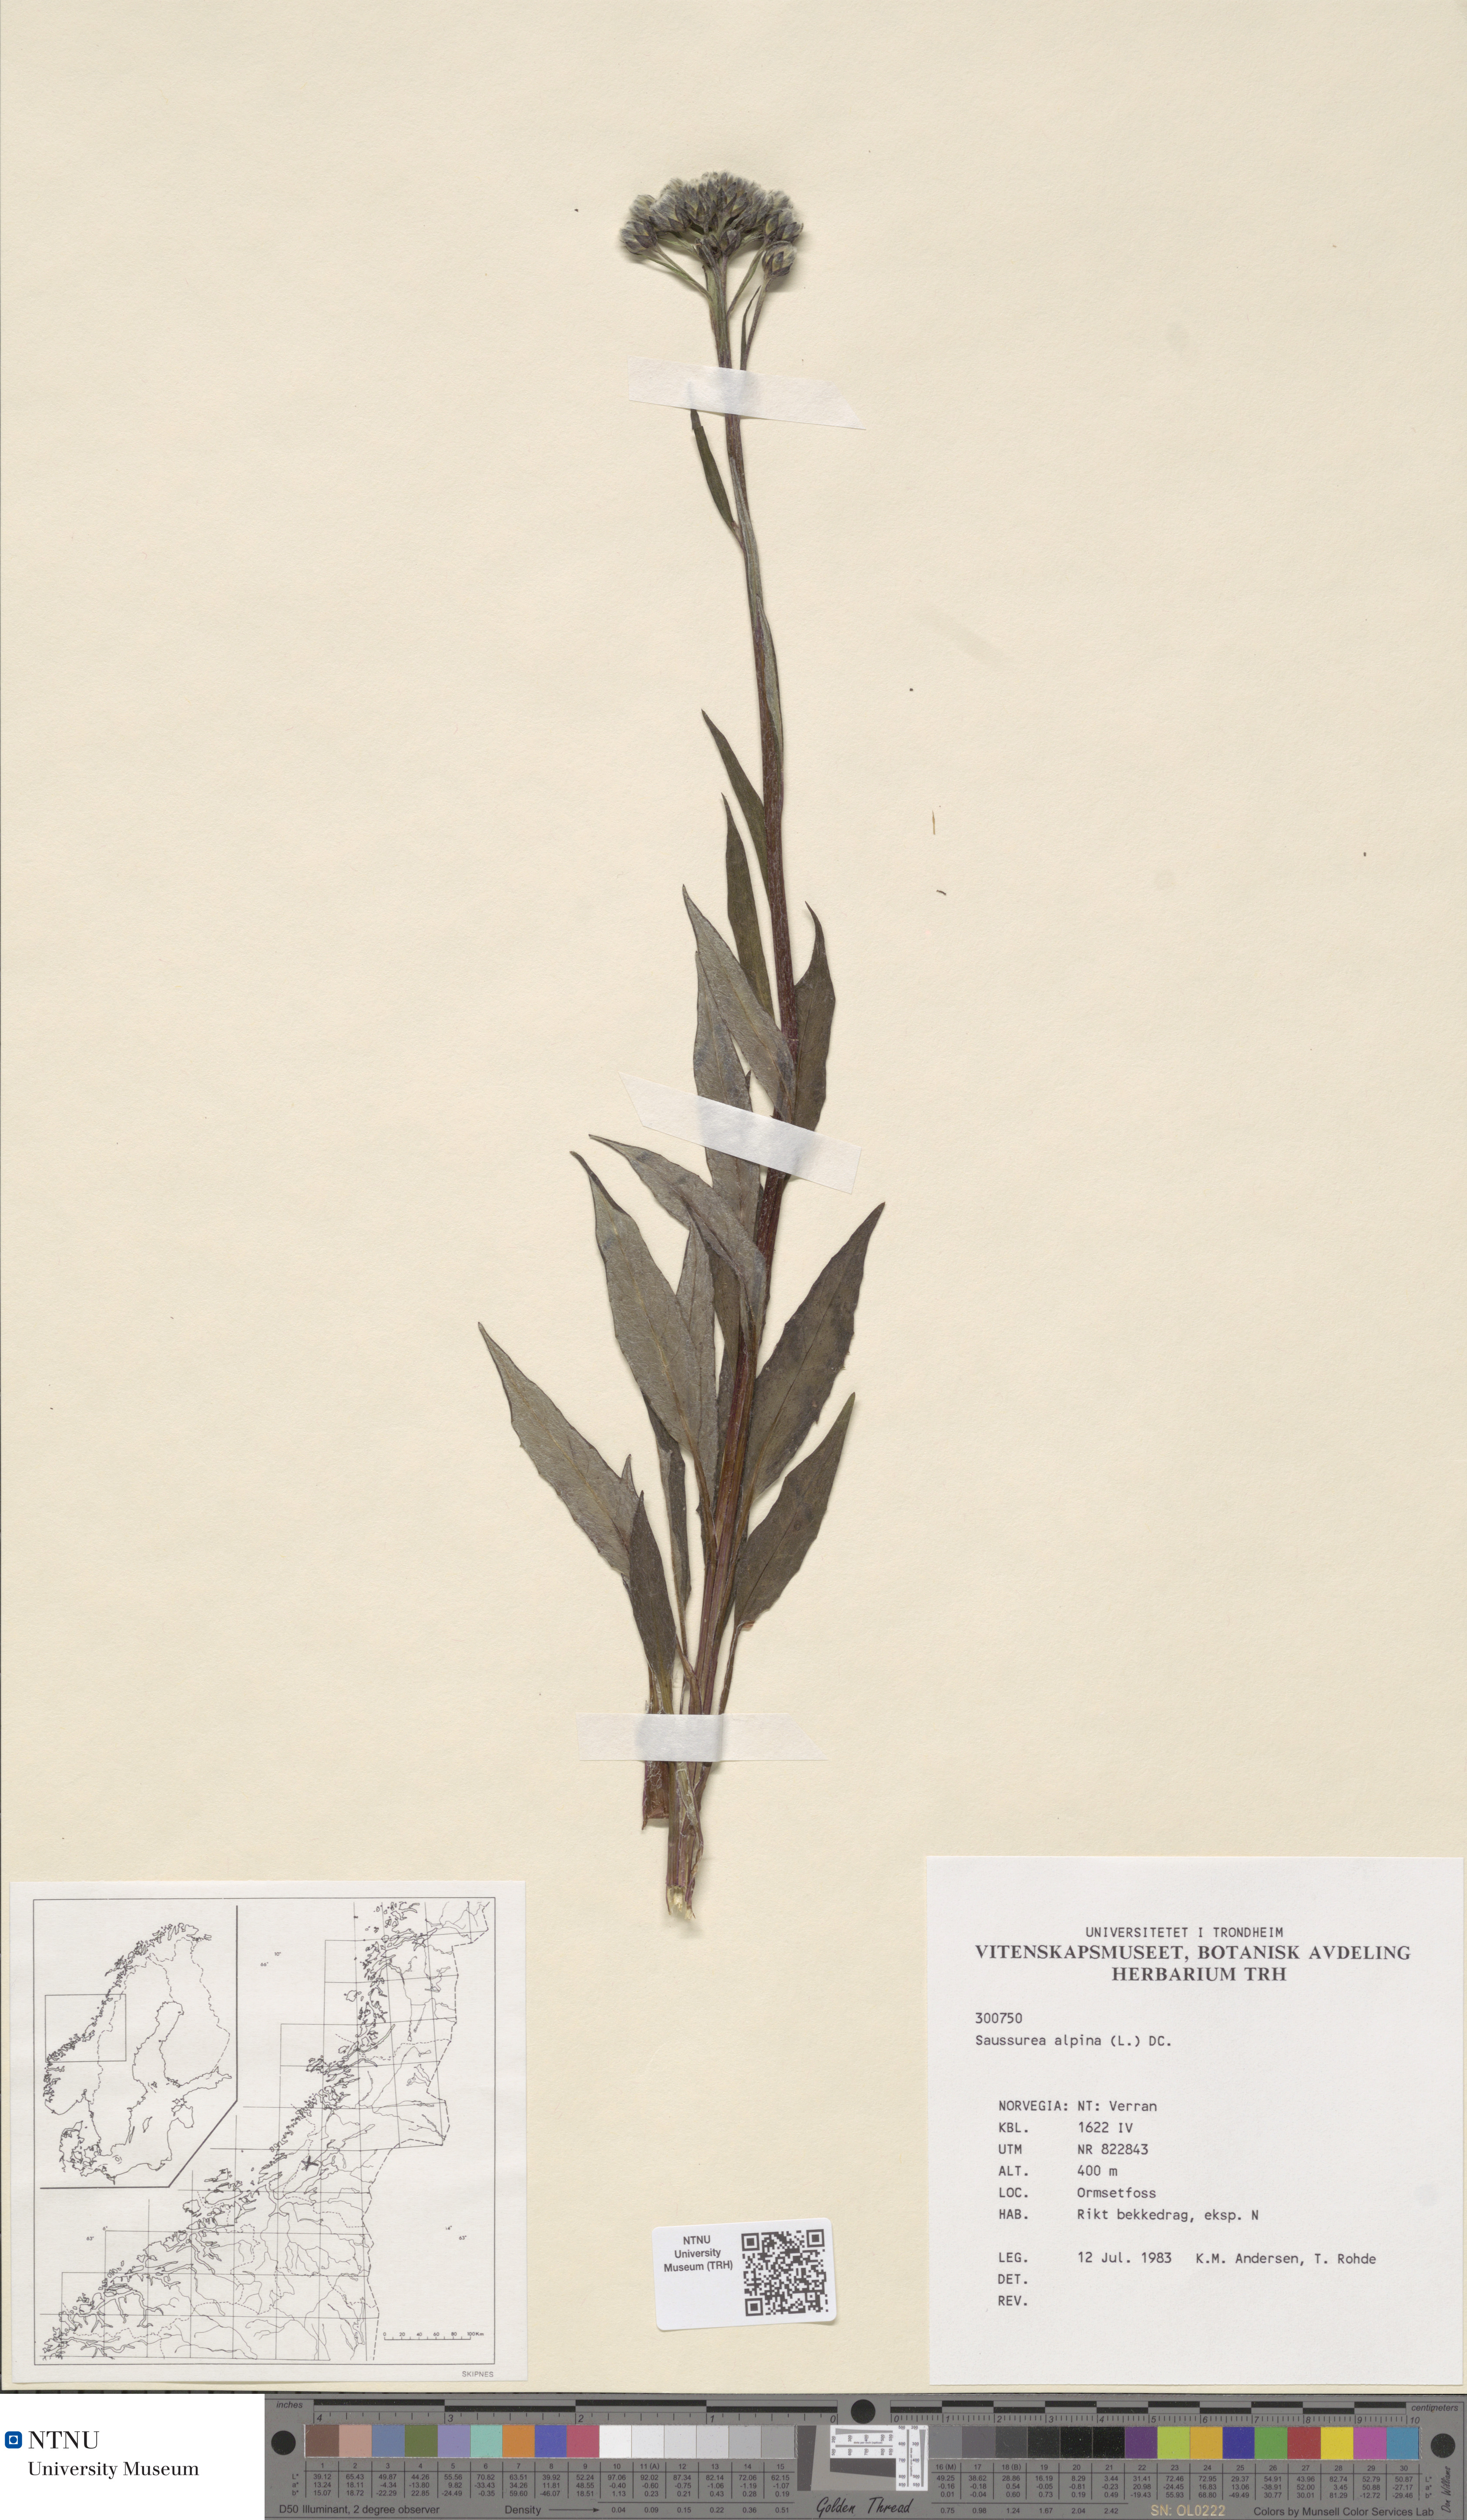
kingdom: Plantae
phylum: Tracheophyta
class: Magnoliopsida
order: Asterales
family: Asteraceae
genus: Saussurea
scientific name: Saussurea alpina
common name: Alpine saw-wort
